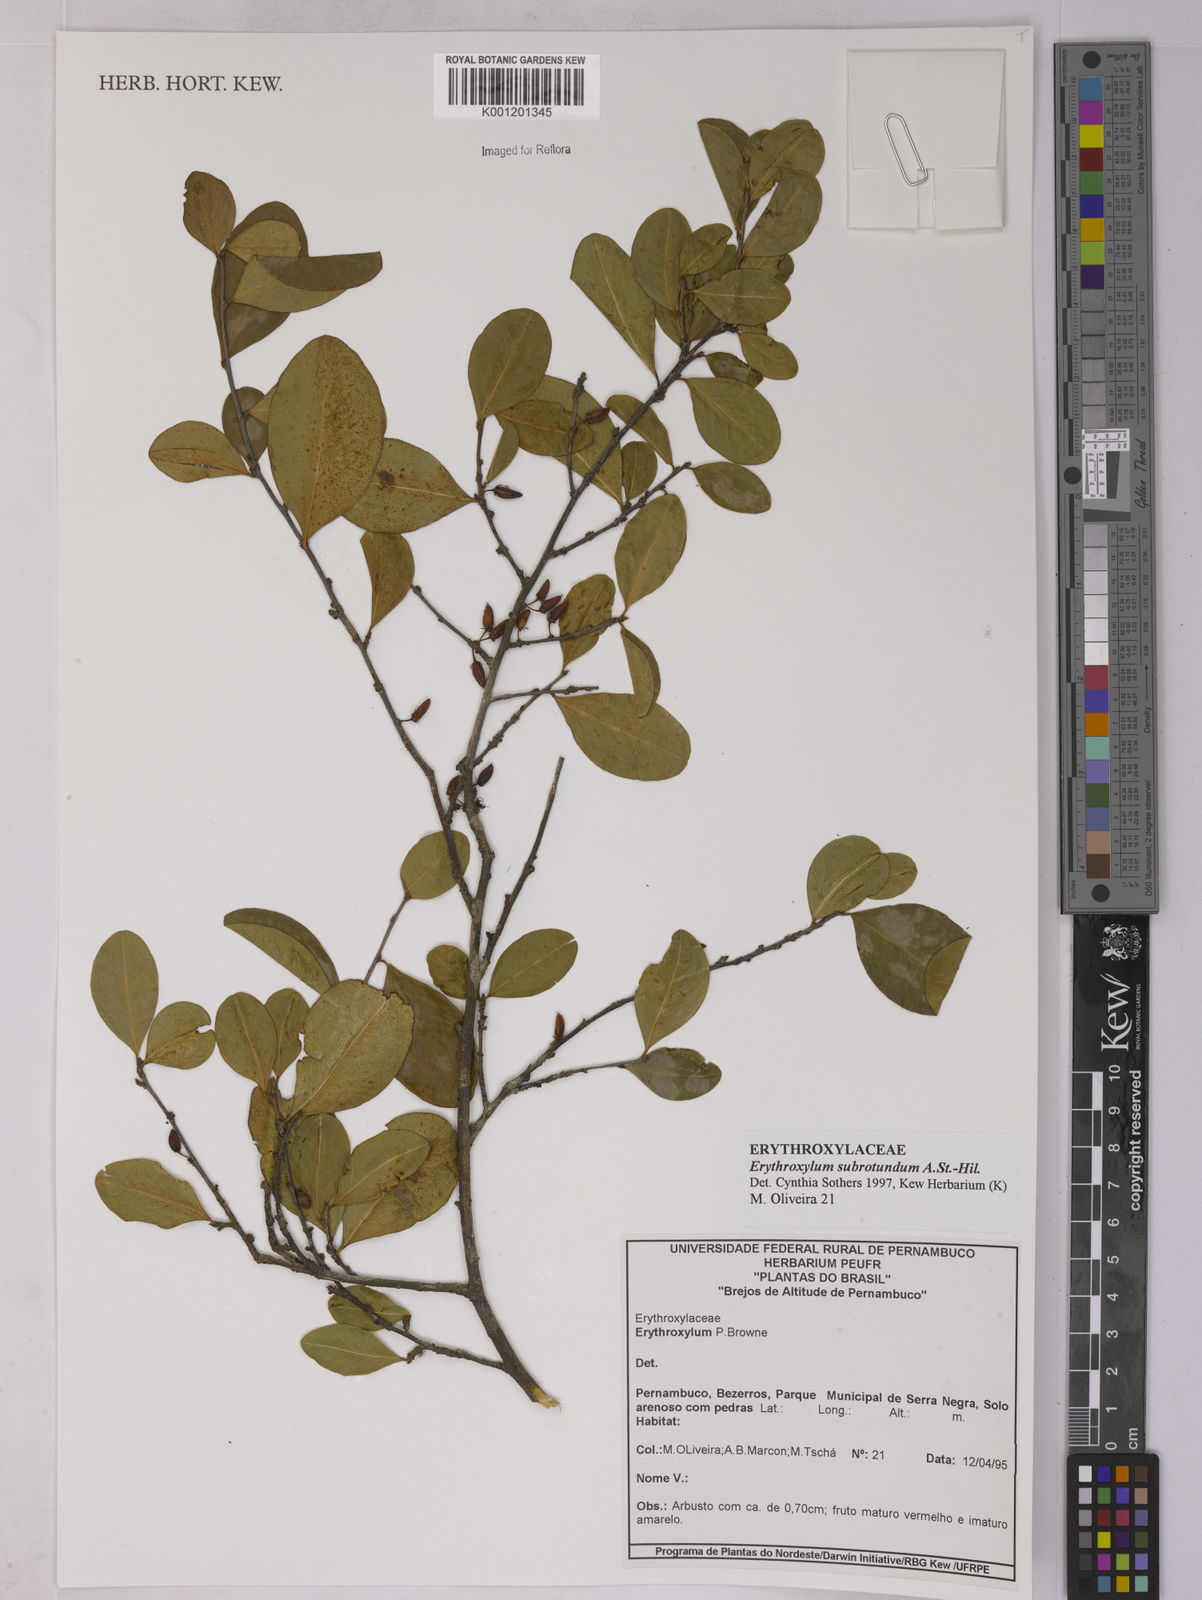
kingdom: Plantae
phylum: Tracheophyta
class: Magnoliopsida
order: Malpighiales
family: Erythroxylaceae
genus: Erythroxylum
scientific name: Erythroxylum subrotundum
